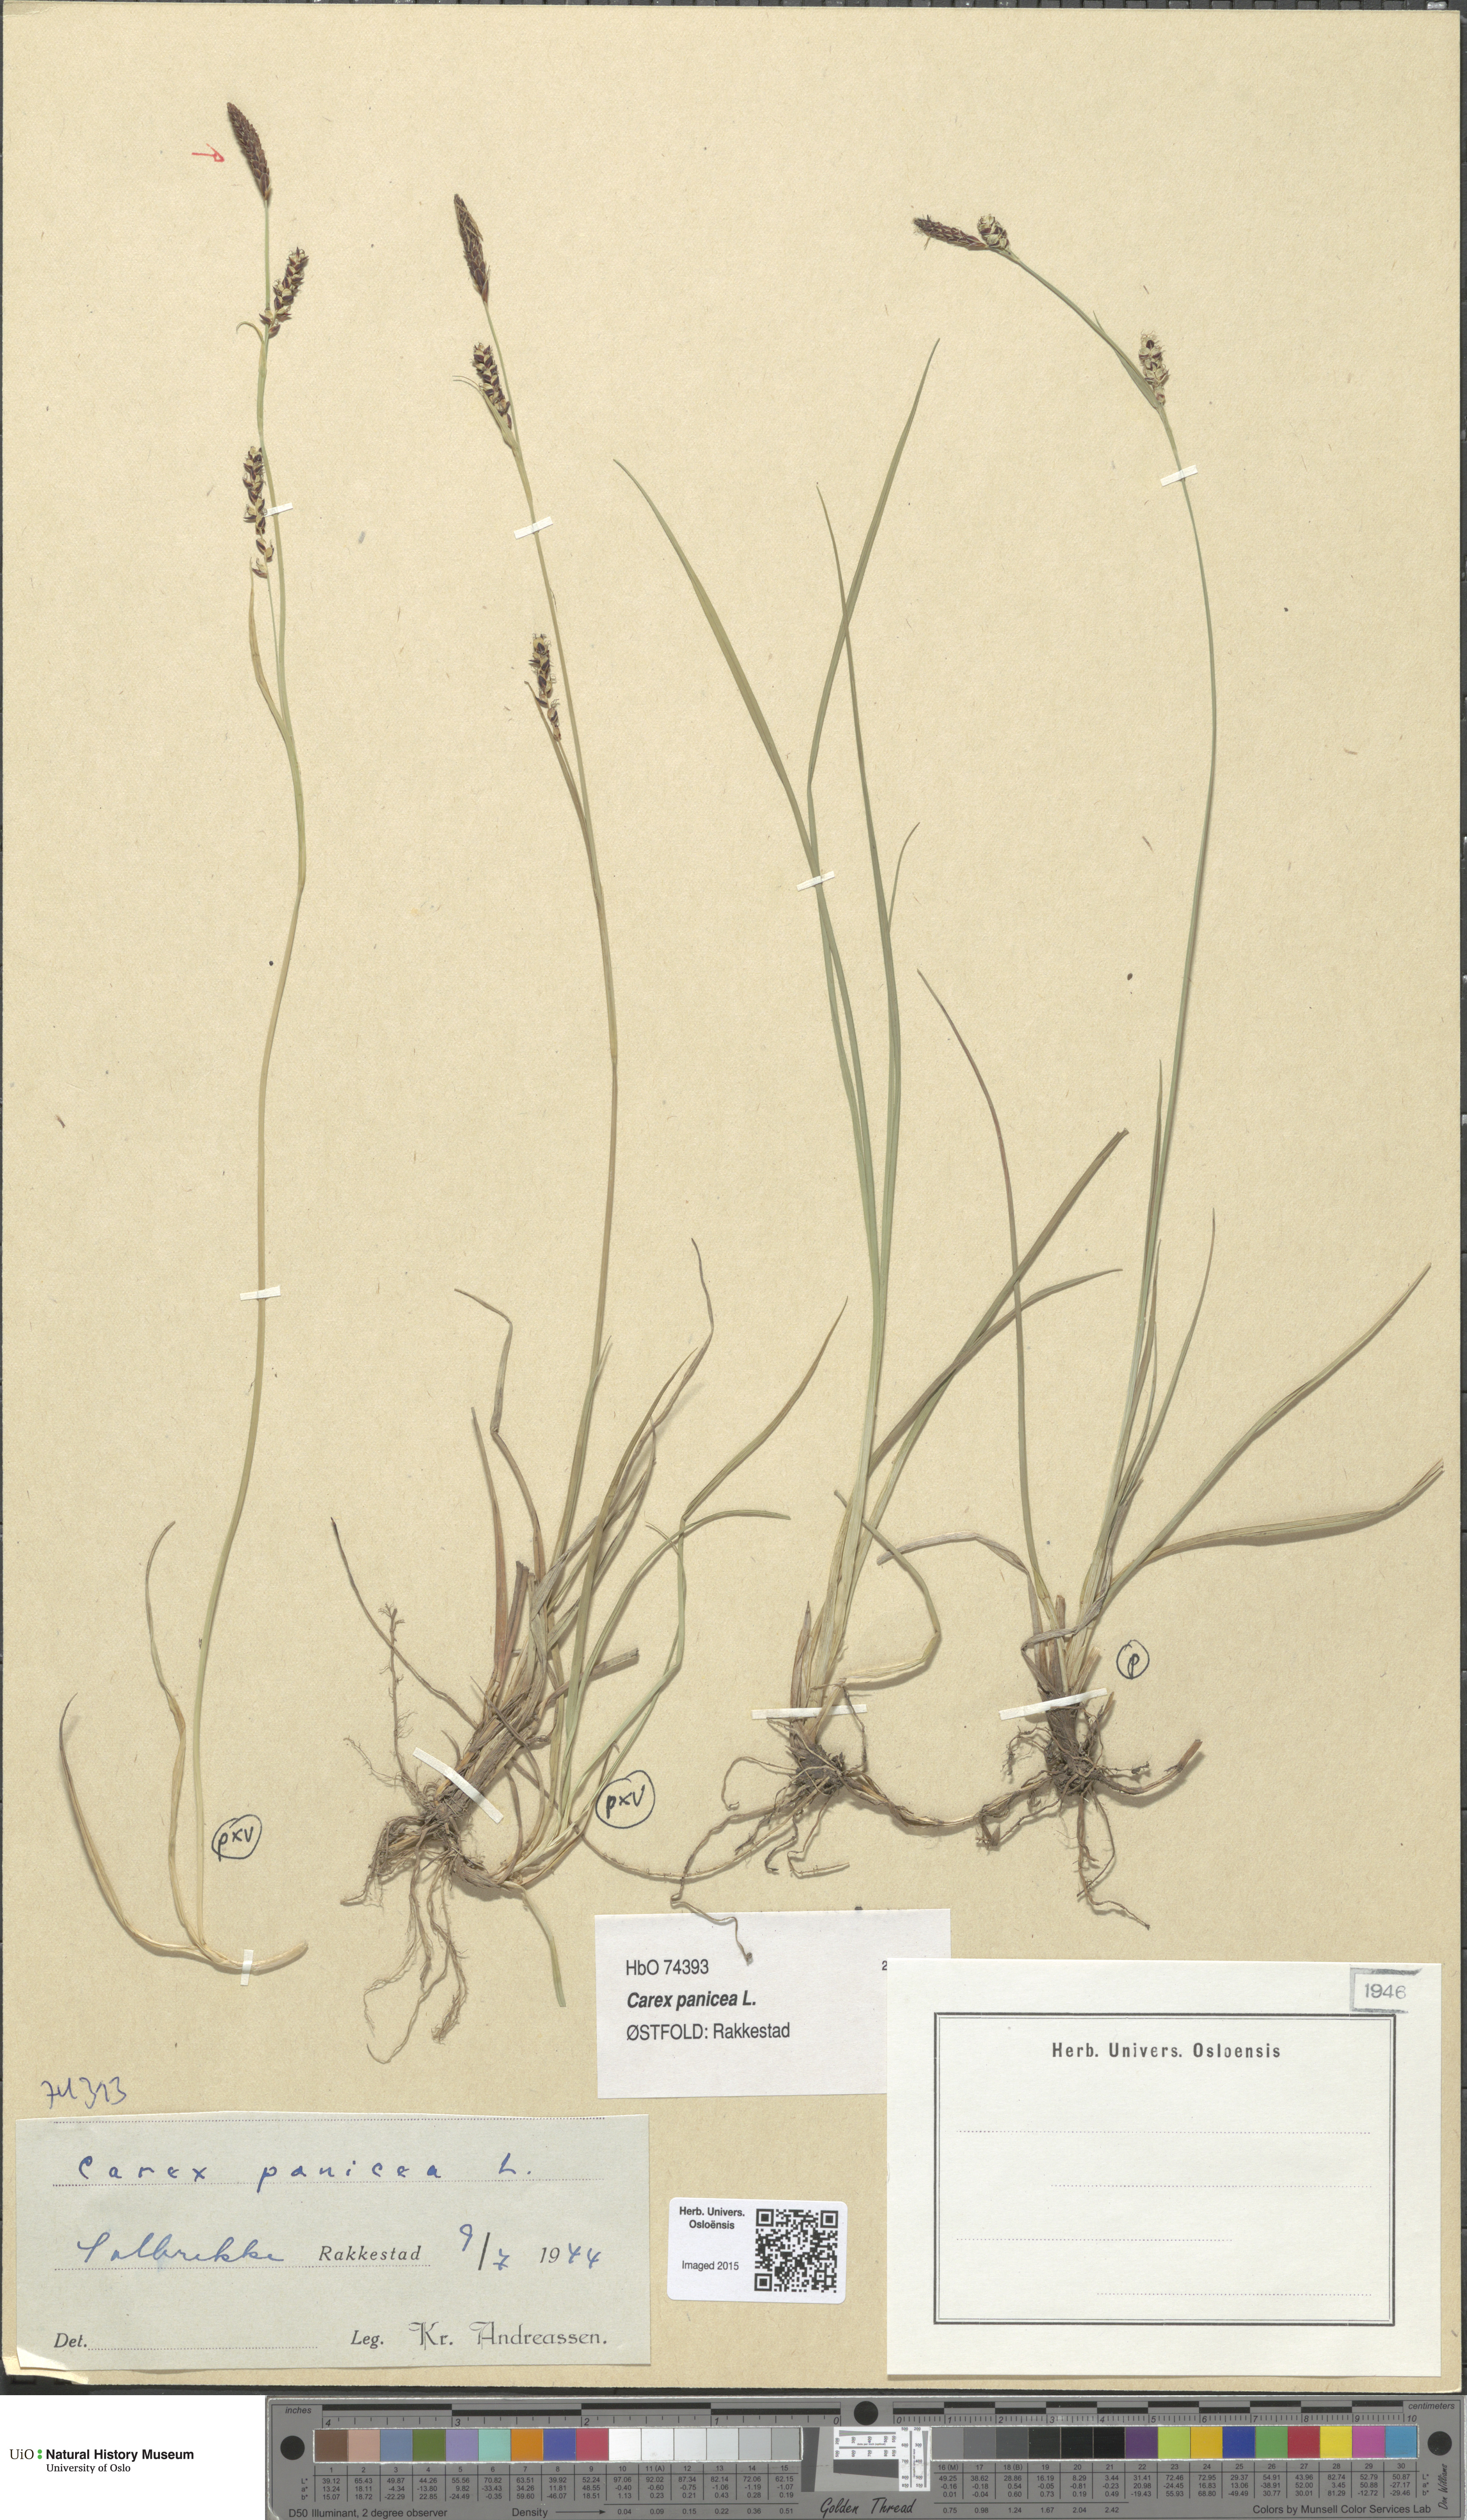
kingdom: Plantae
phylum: Tracheophyta
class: Liliopsida
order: Poales
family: Cyperaceae
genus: Carex
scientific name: Carex panicea
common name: Carnation sedge
